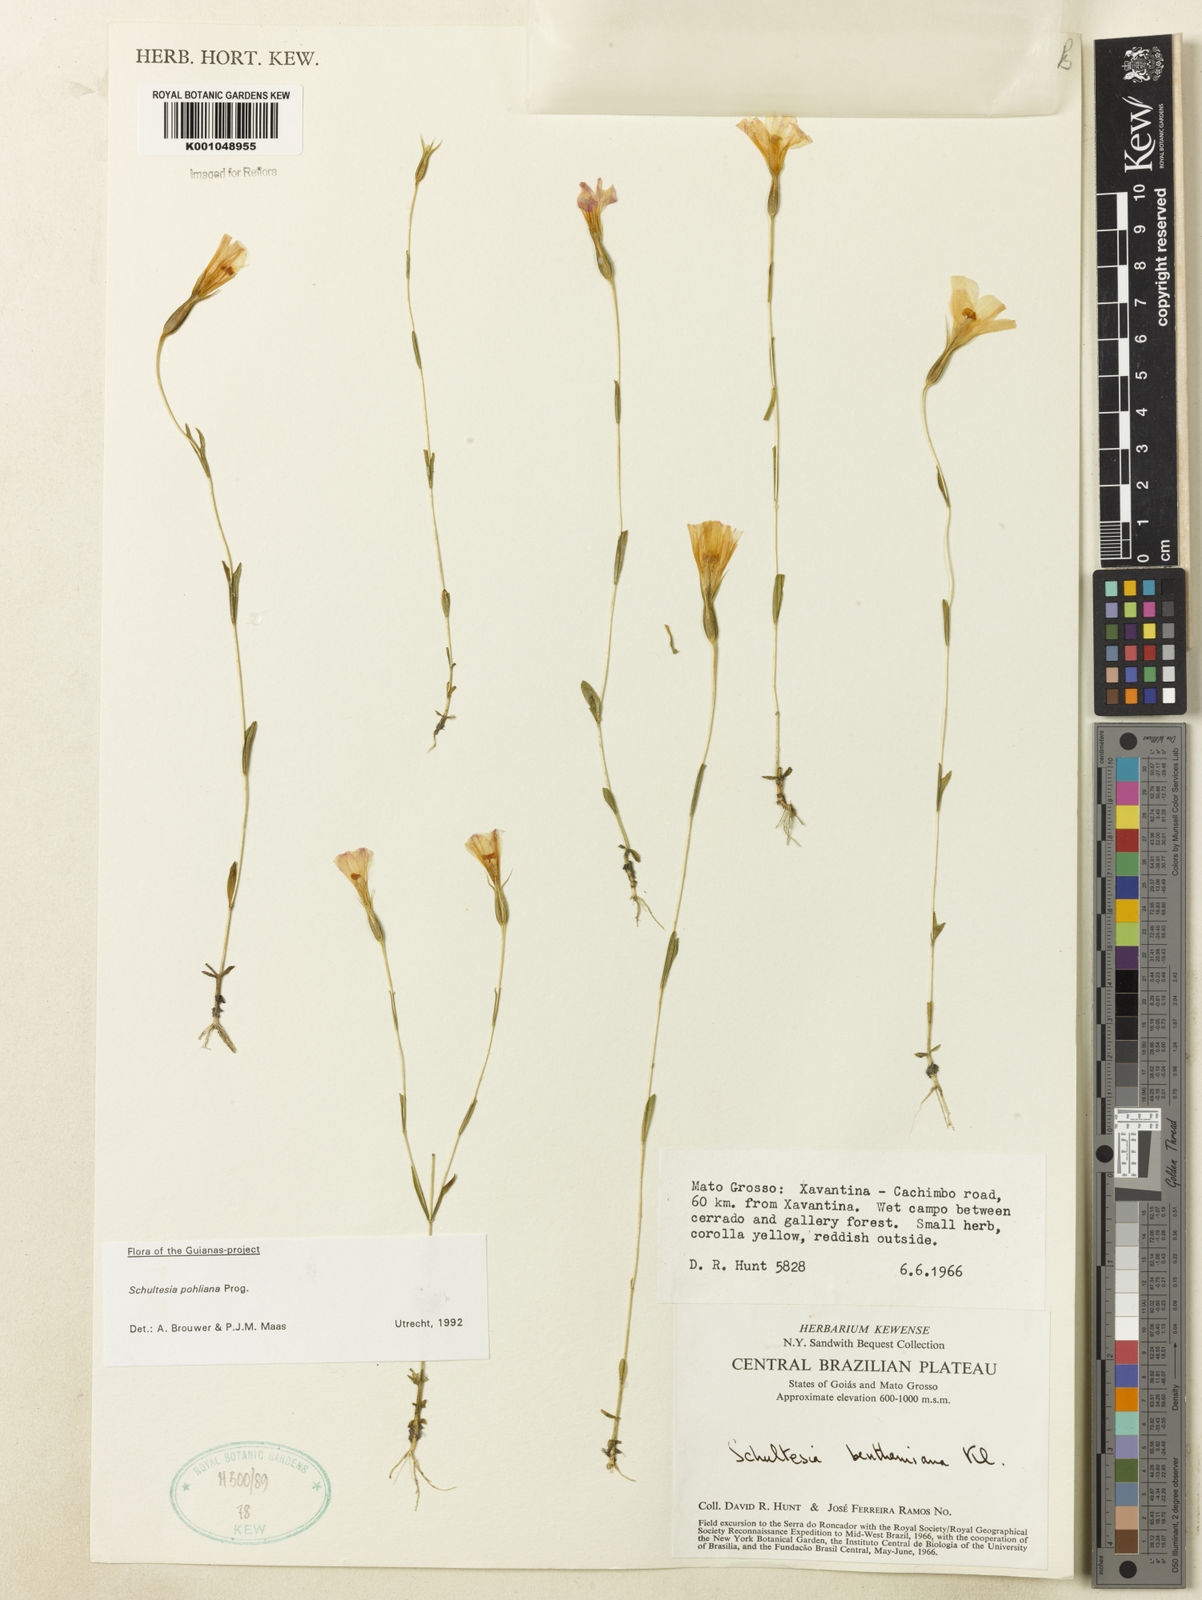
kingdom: Plantae
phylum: Tracheophyta
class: Magnoliopsida
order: Gentianales
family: Gentianaceae
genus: Schultesia
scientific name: Schultesia pohliana
